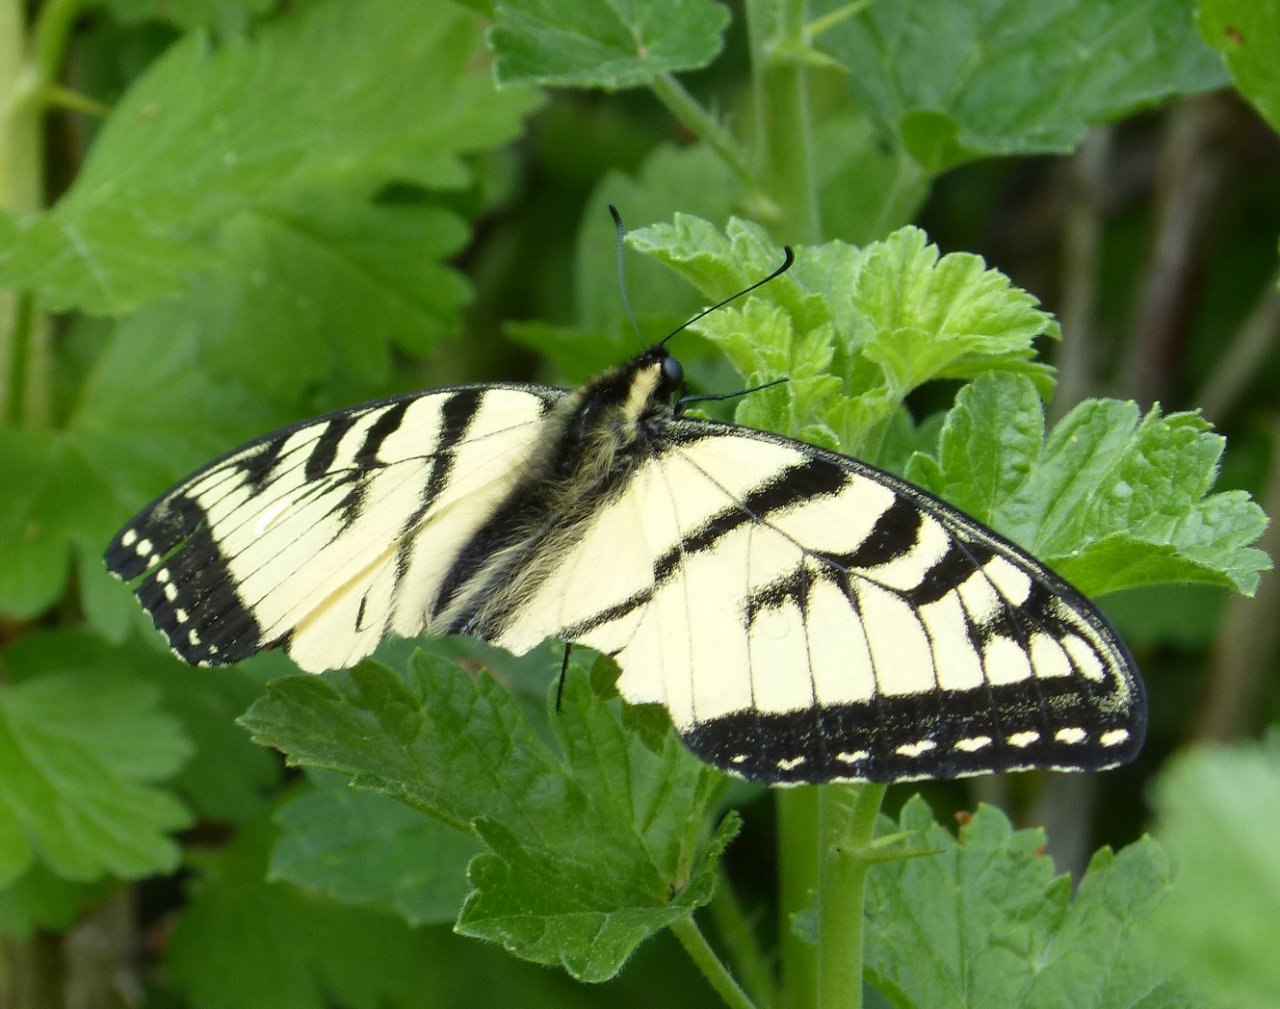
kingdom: Animalia
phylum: Arthropoda
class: Insecta
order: Lepidoptera
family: Papilionidae
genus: Pterourus
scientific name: Pterourus canadensis
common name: Canadian Tiger Swallowtail
